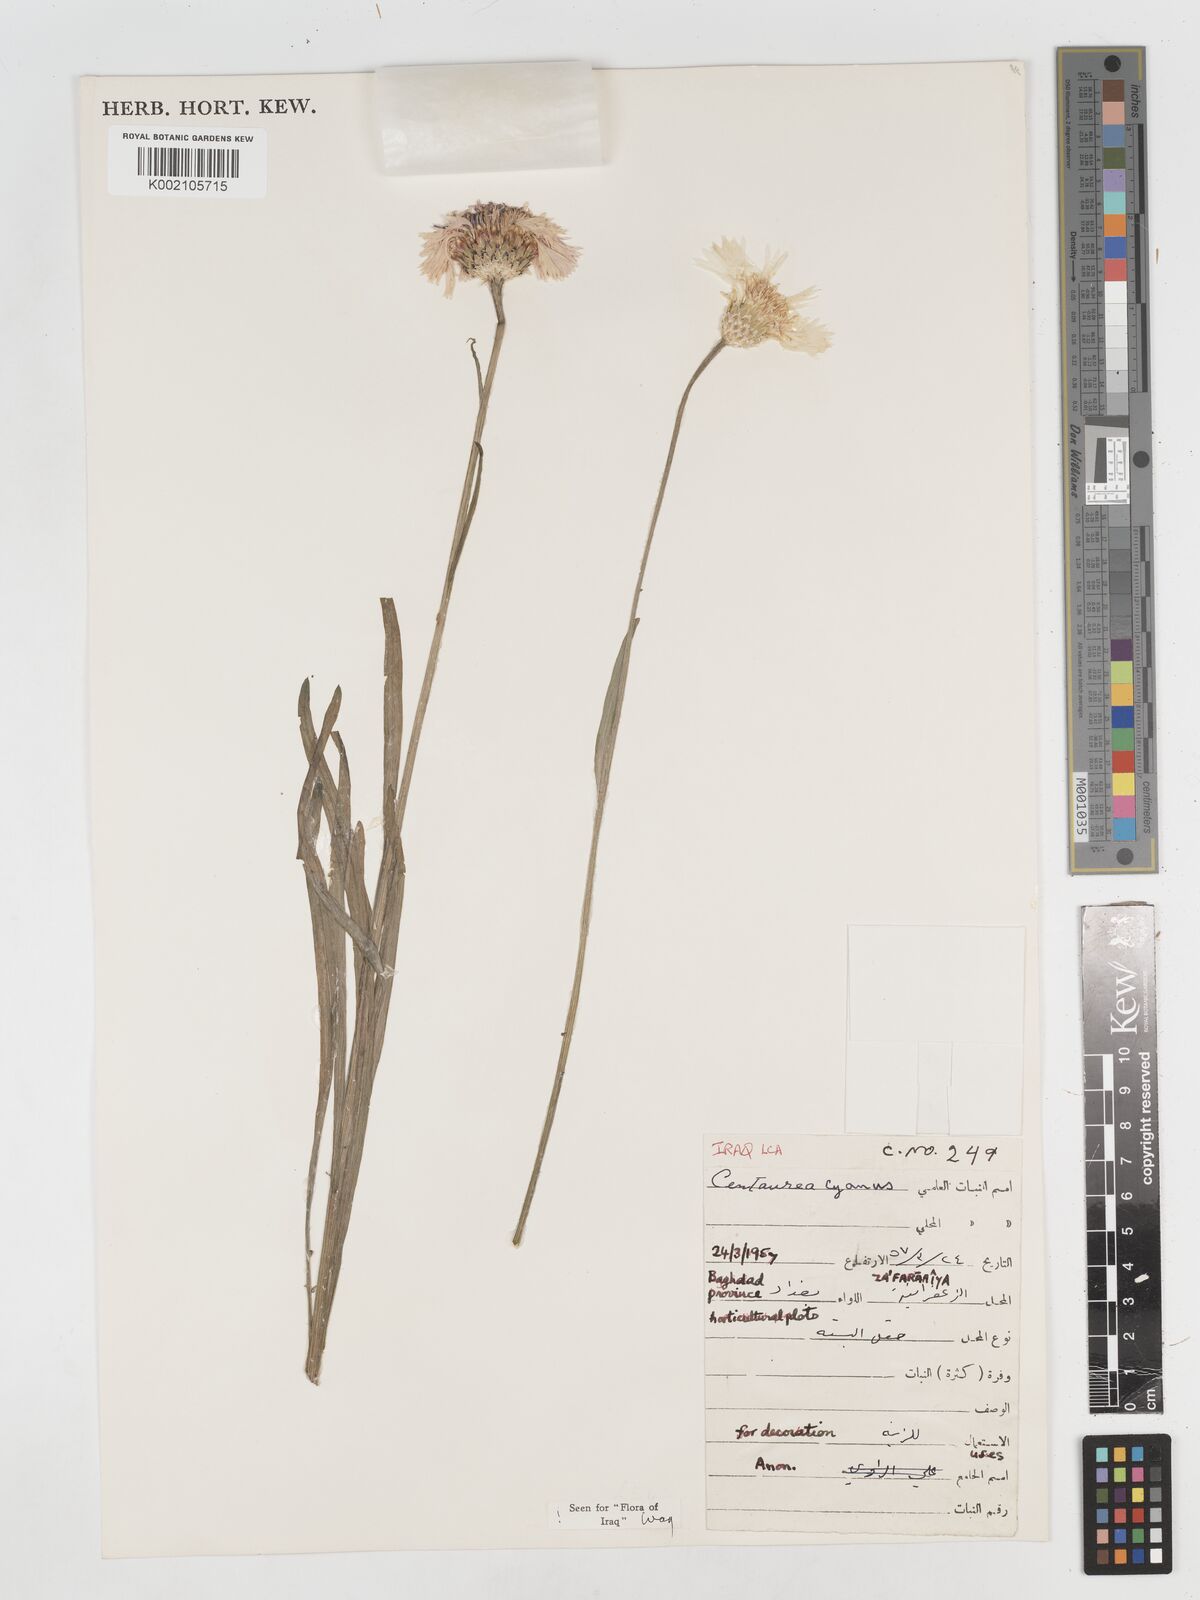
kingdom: Plantae
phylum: Tracheophyta
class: Magnoliopsida
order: Asterales
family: Asteraceae
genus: Centaurea
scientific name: Centaurea cyanus
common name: Cornflower
